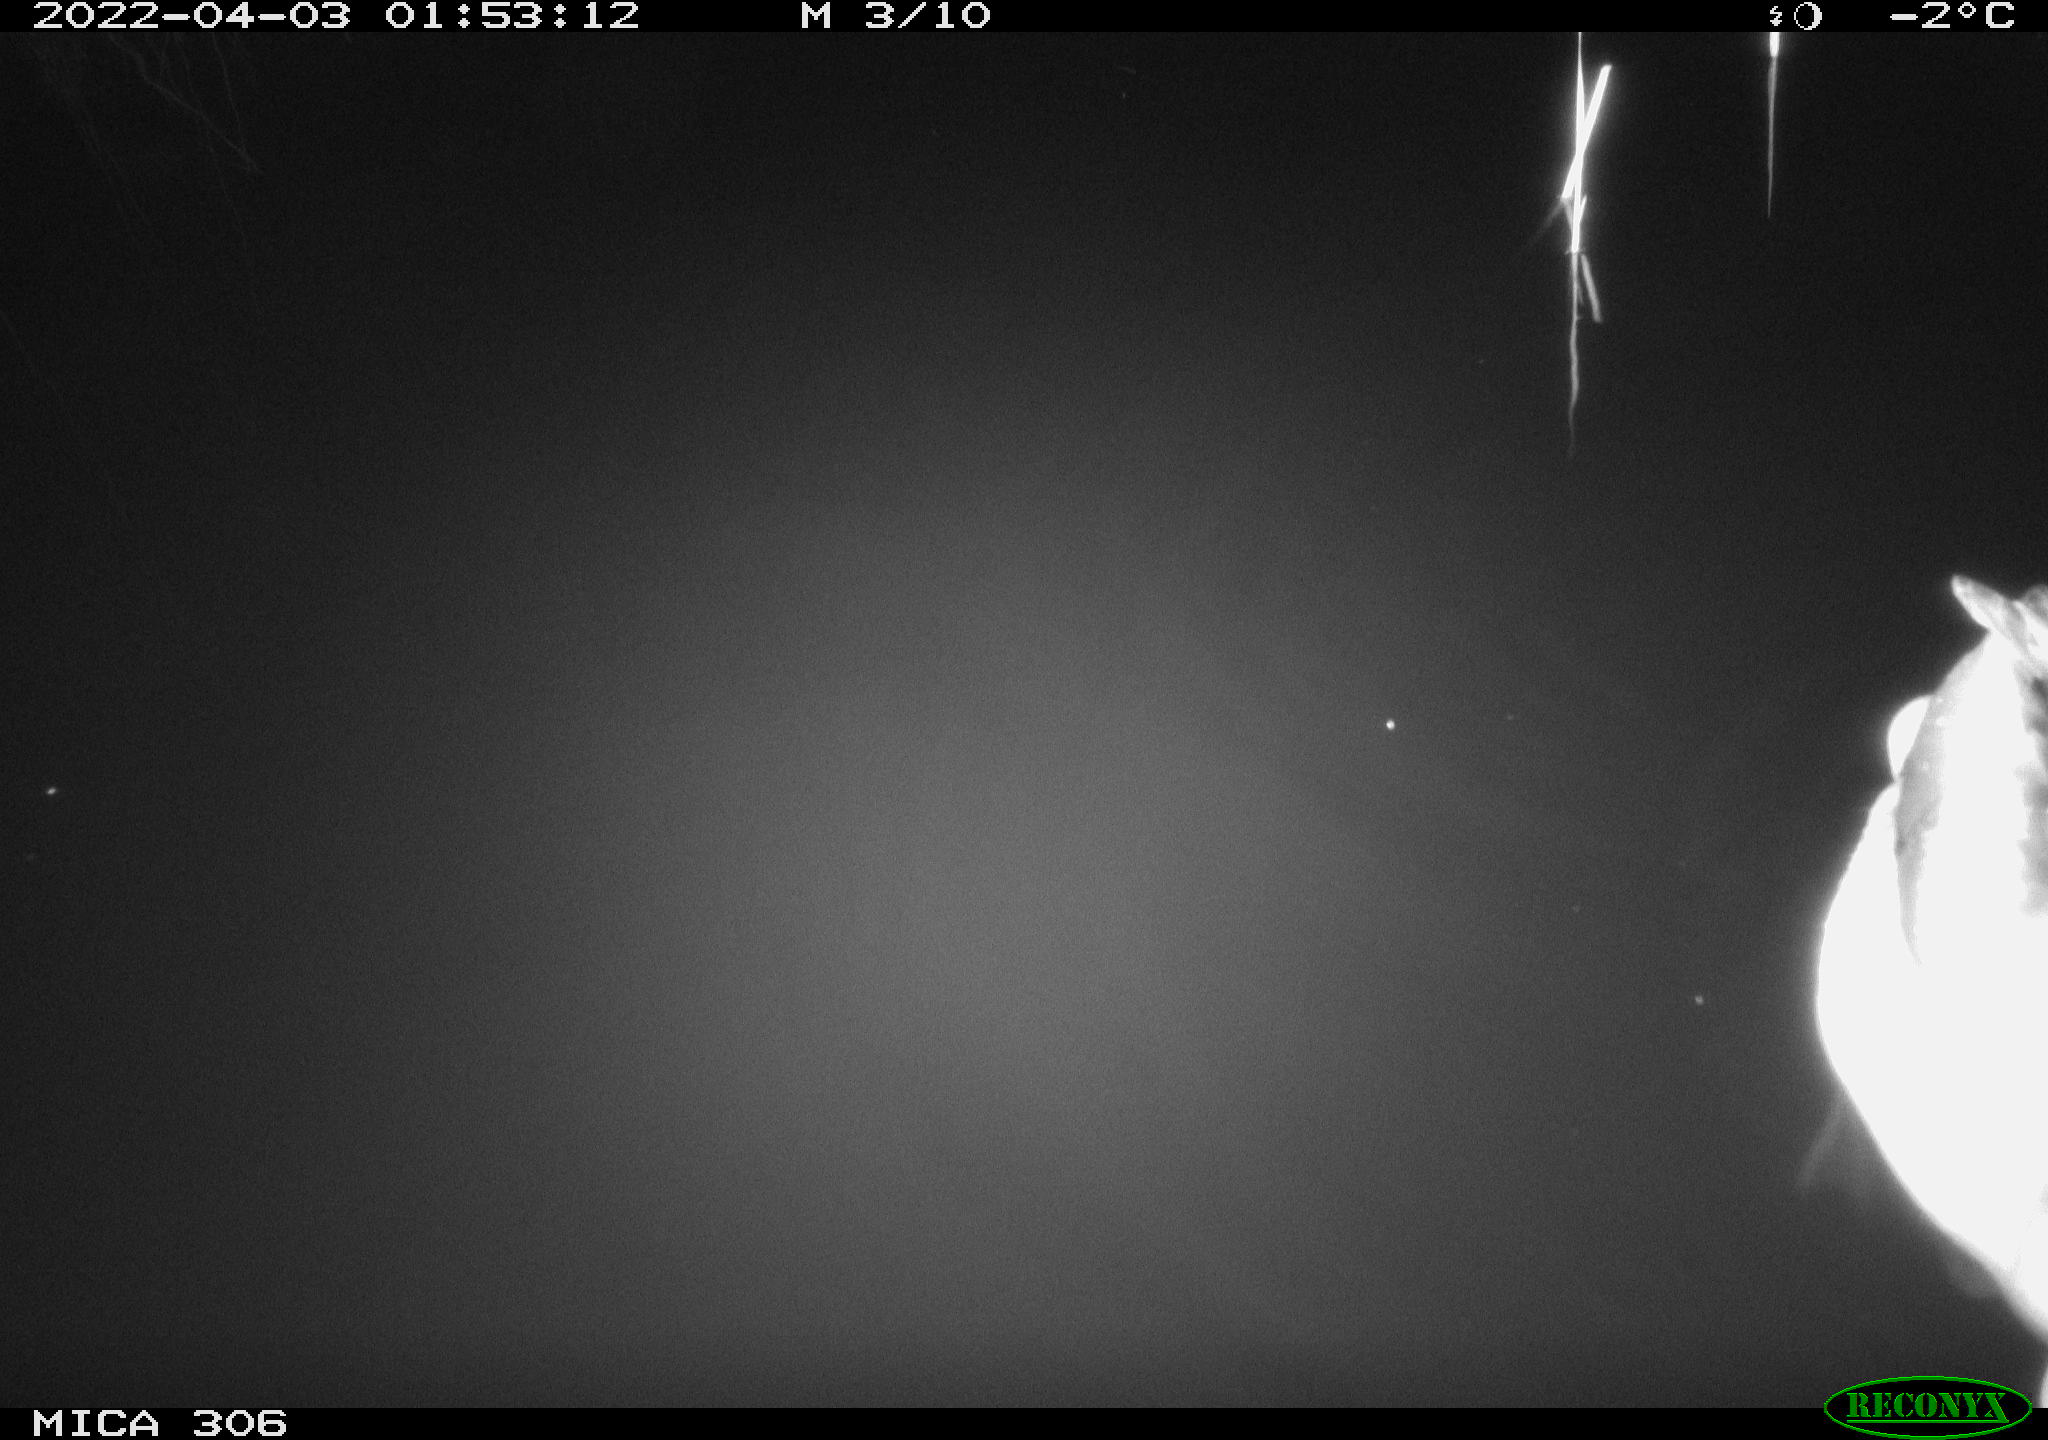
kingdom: Animalia
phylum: Chordata
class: Aves
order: Anseriformes
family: Anatidae
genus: Anas
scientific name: Anas platyrhynchos
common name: Mallard
